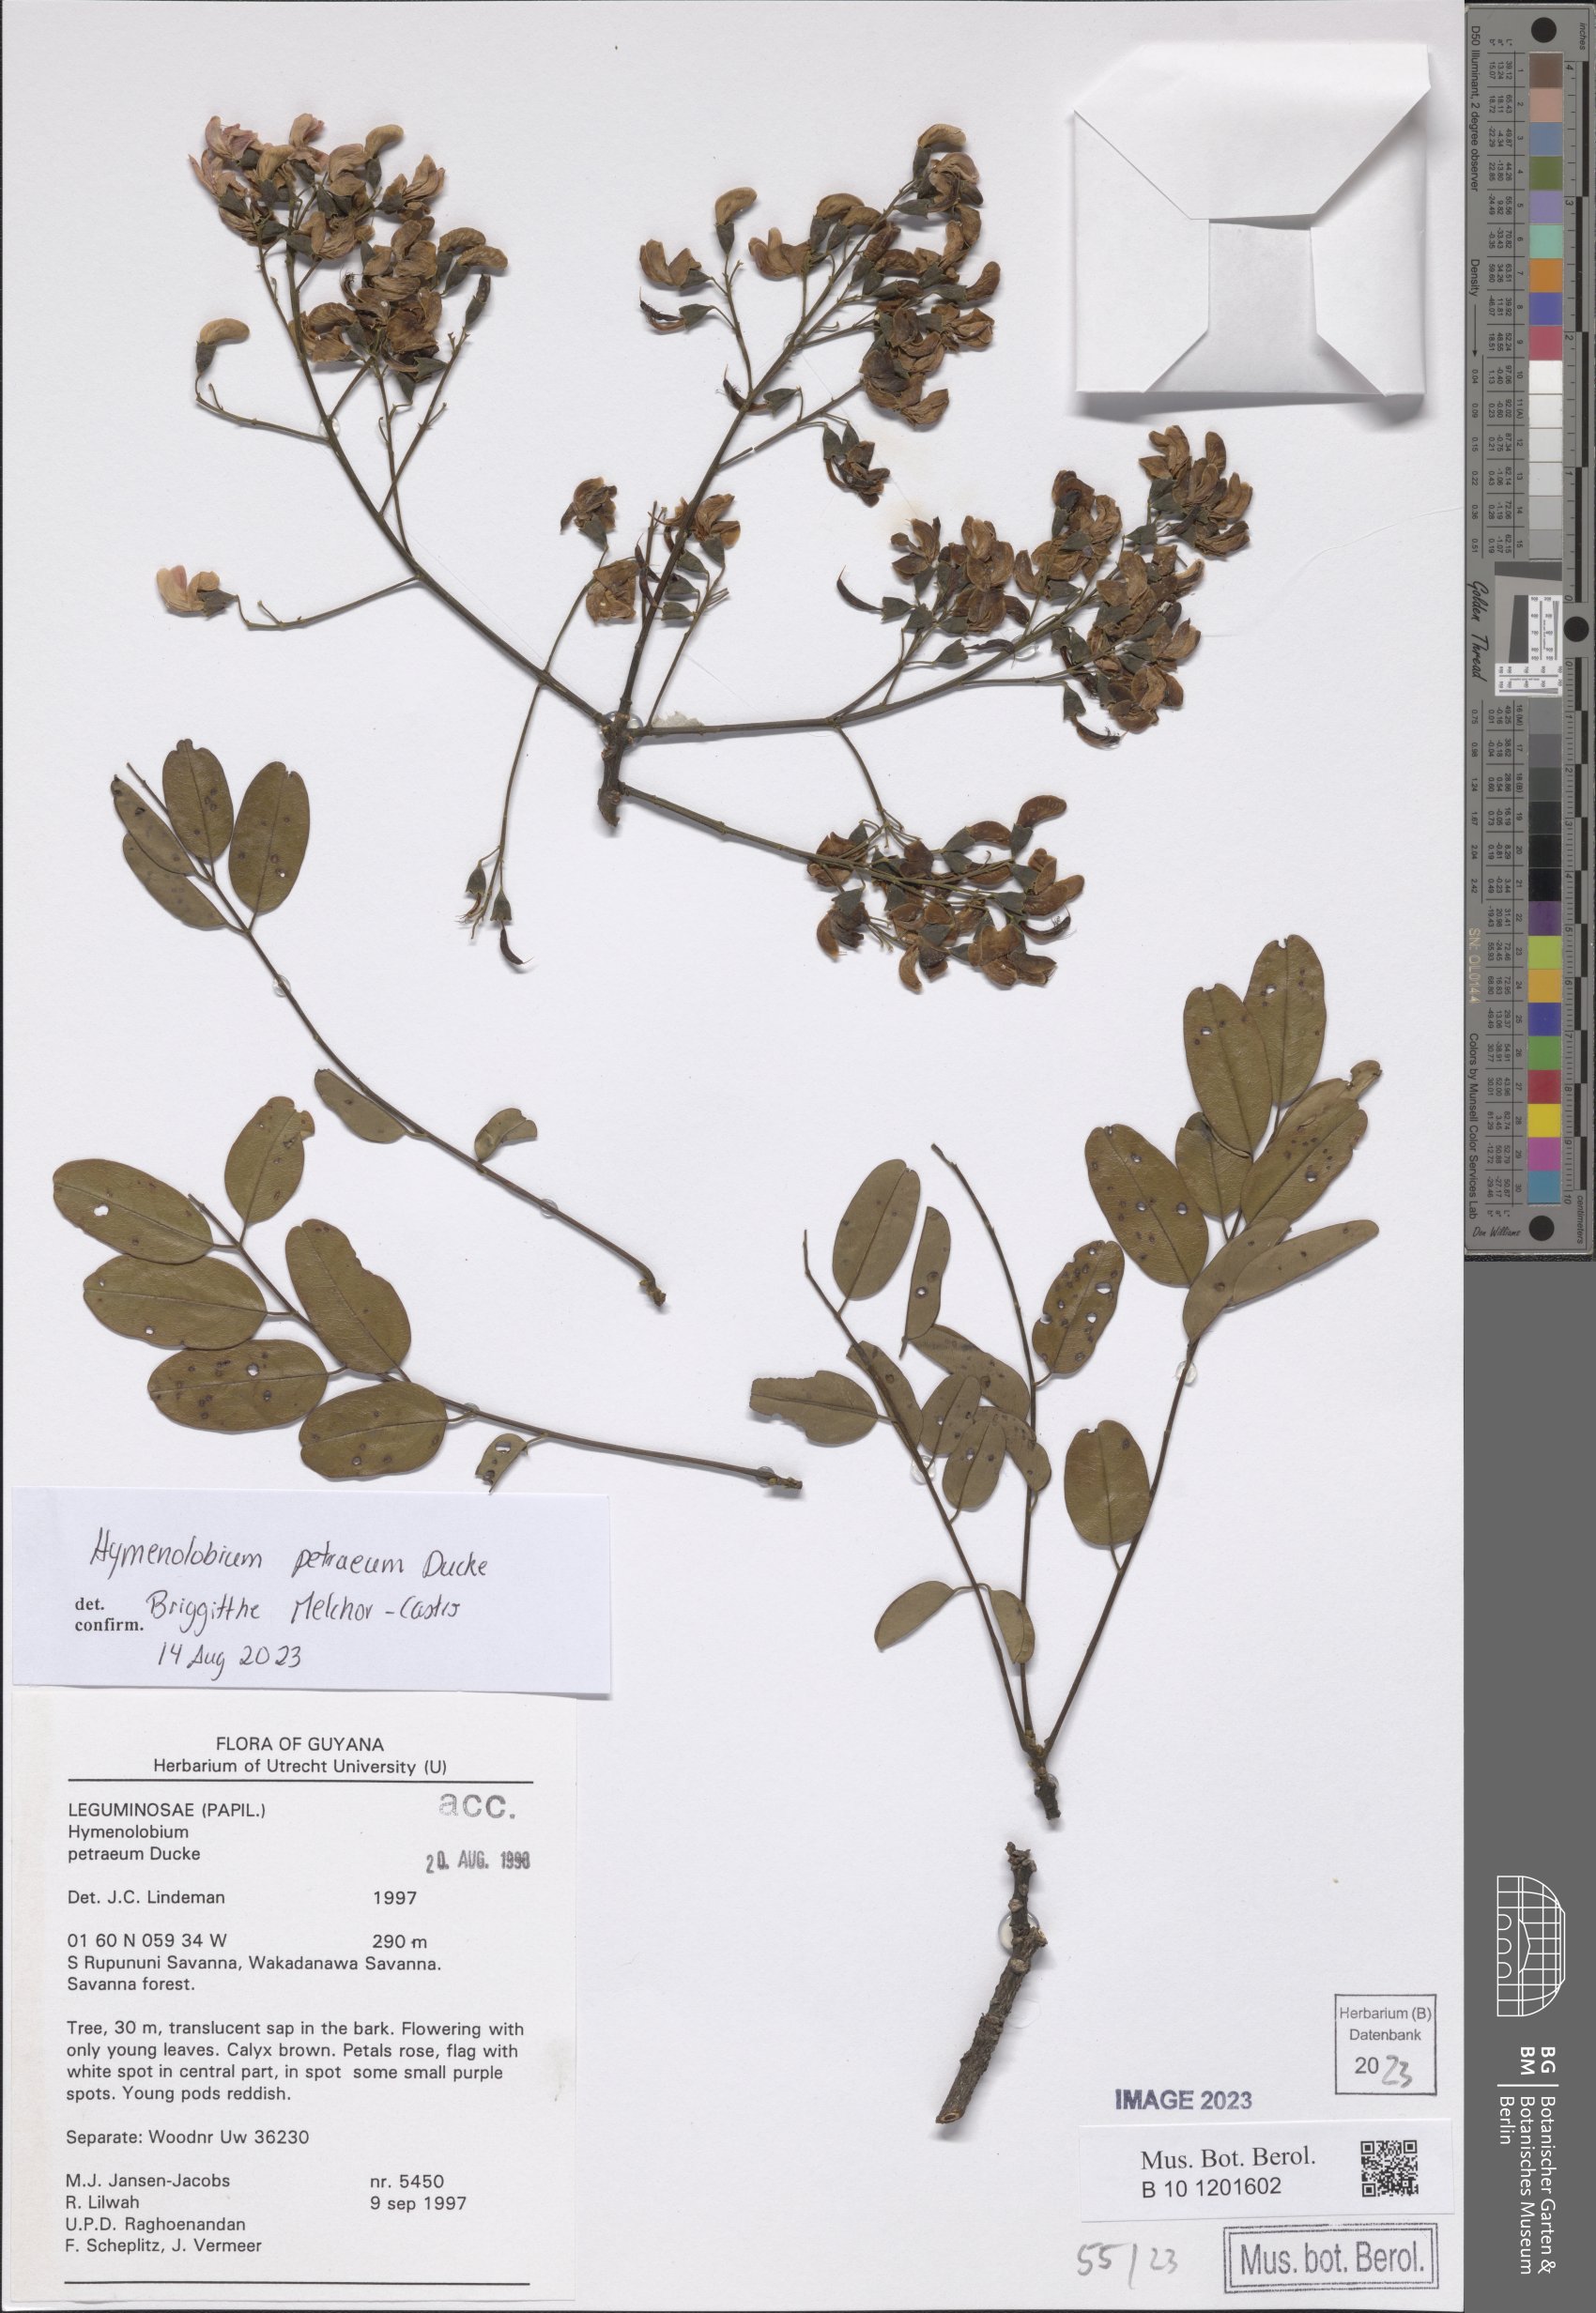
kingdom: Plantae
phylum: Tracheophyta
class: Magnoliopsida
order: Fabales
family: Fabaceae
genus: Hymenolobium
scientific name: Hymenolobium petraeum
